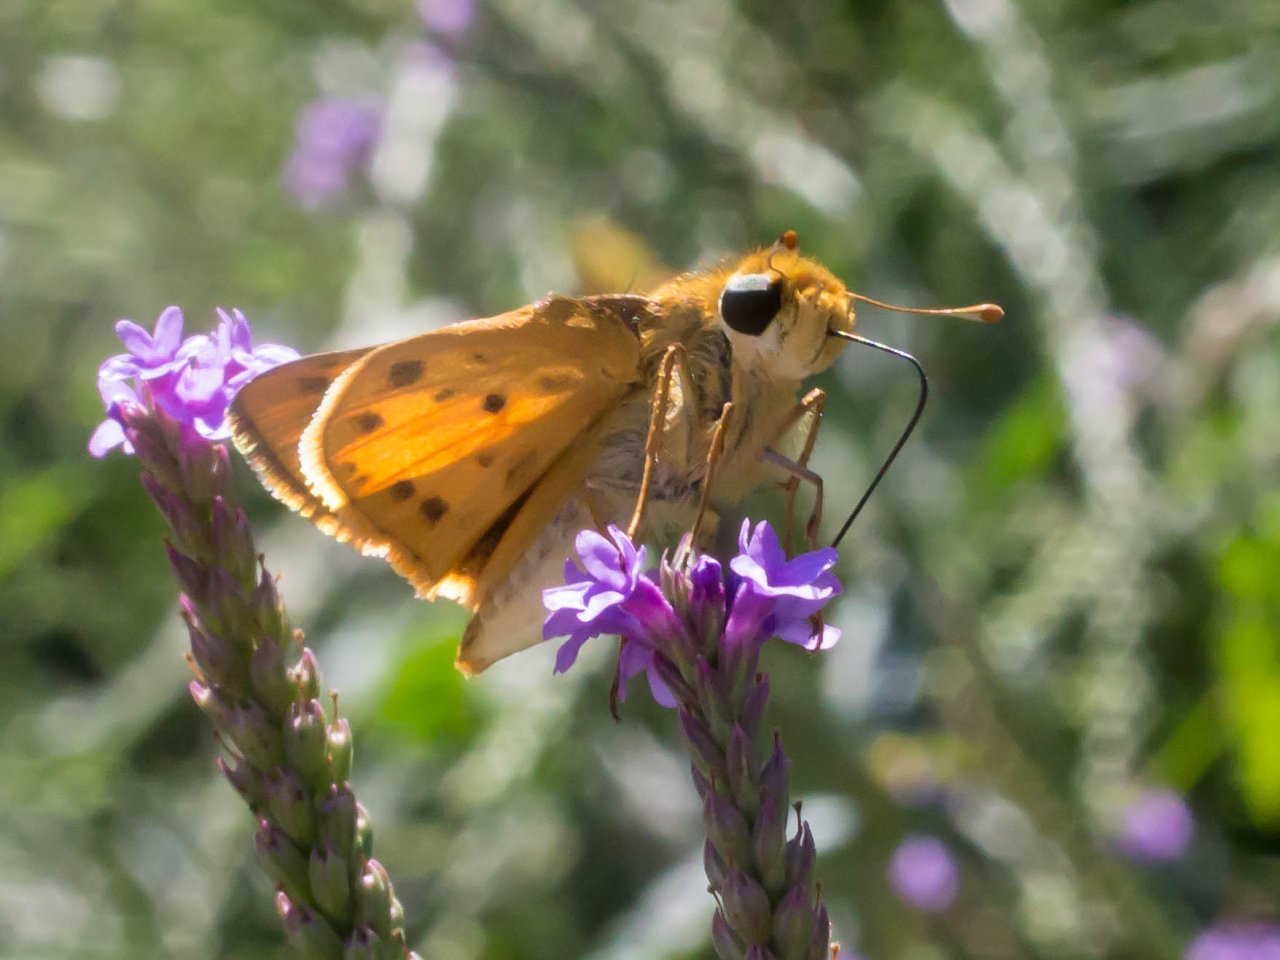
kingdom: Animalia
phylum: Arthropoda
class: Insecta
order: Lepidoptera
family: Hesperiidae
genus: Hylephila
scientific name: Hylephila phyleus
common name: Fiery Skipper
